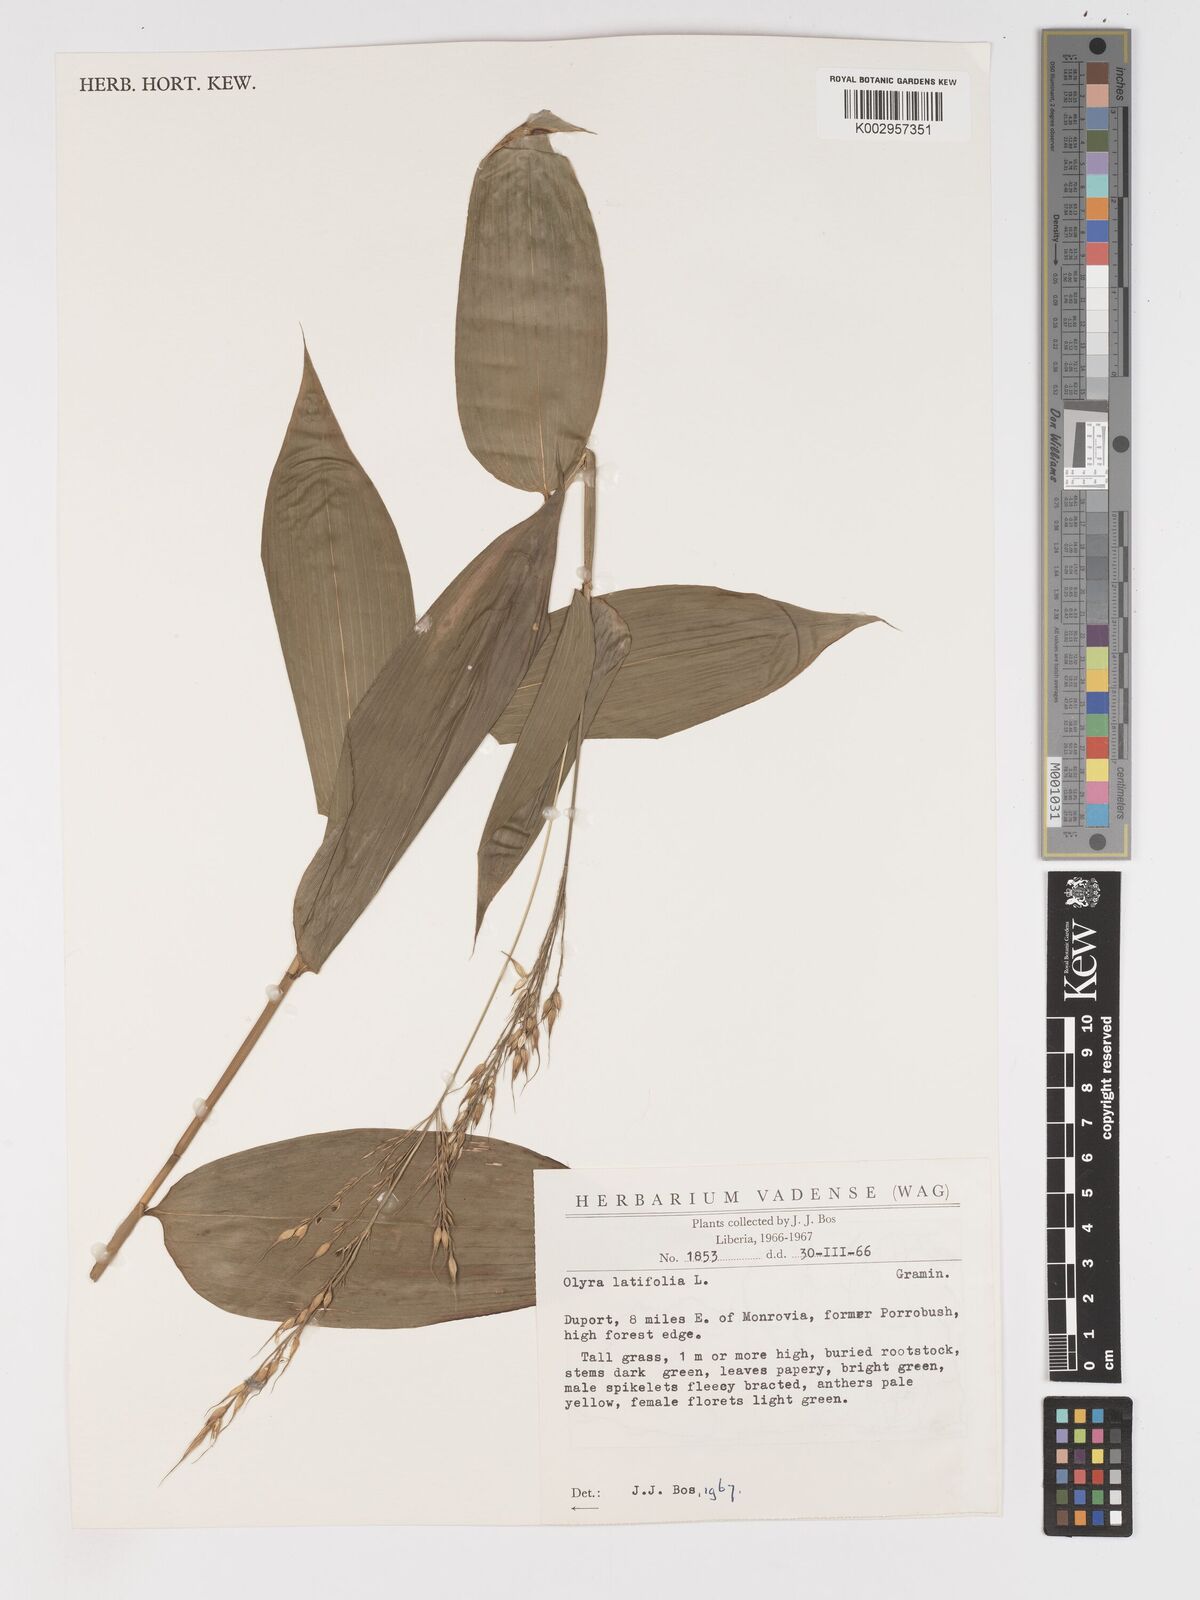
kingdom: Plantae
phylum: Tracheophyta
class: Liliopsida
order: Poales
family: Poaceae
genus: Olyra
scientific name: Olyra latifolia
